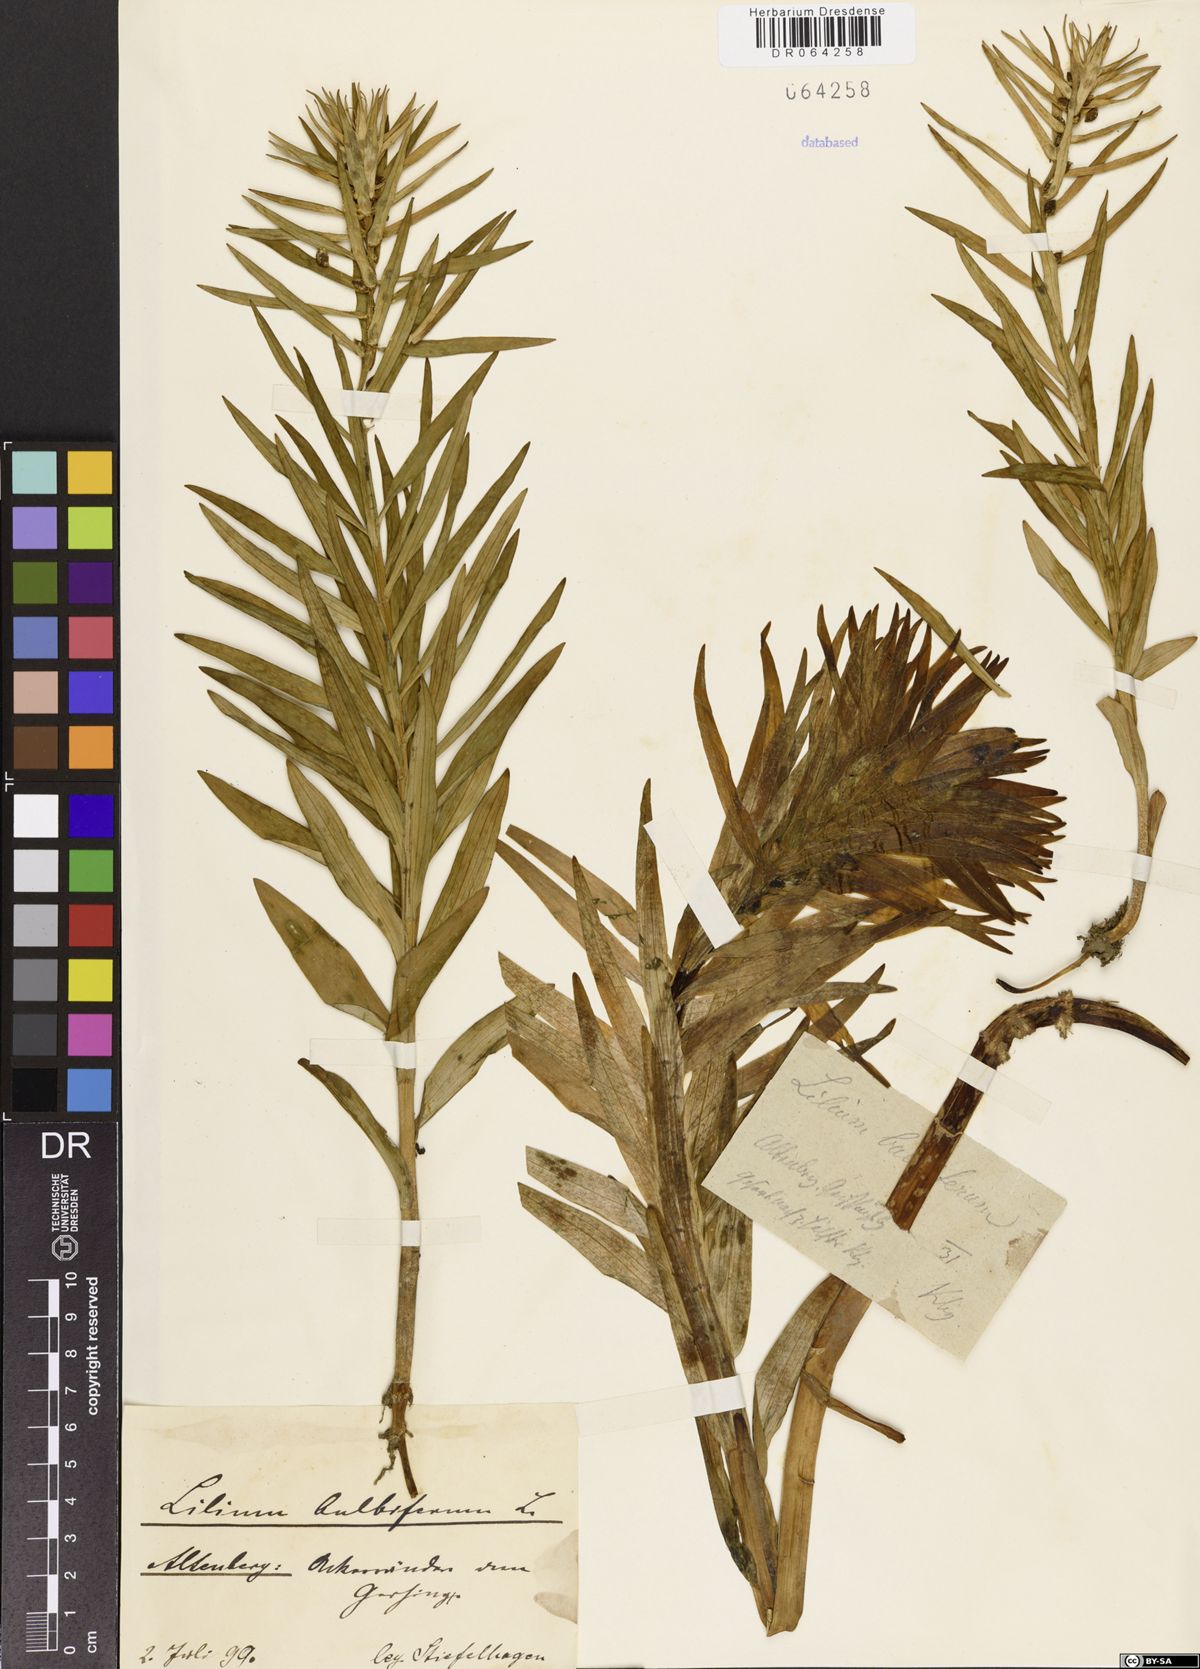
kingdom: Plantae
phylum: Tracheophyta
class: Liliopsida
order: Liliales
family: Liliaceae
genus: Lilium
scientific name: Lilium bulbiferum
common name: Orange lily
